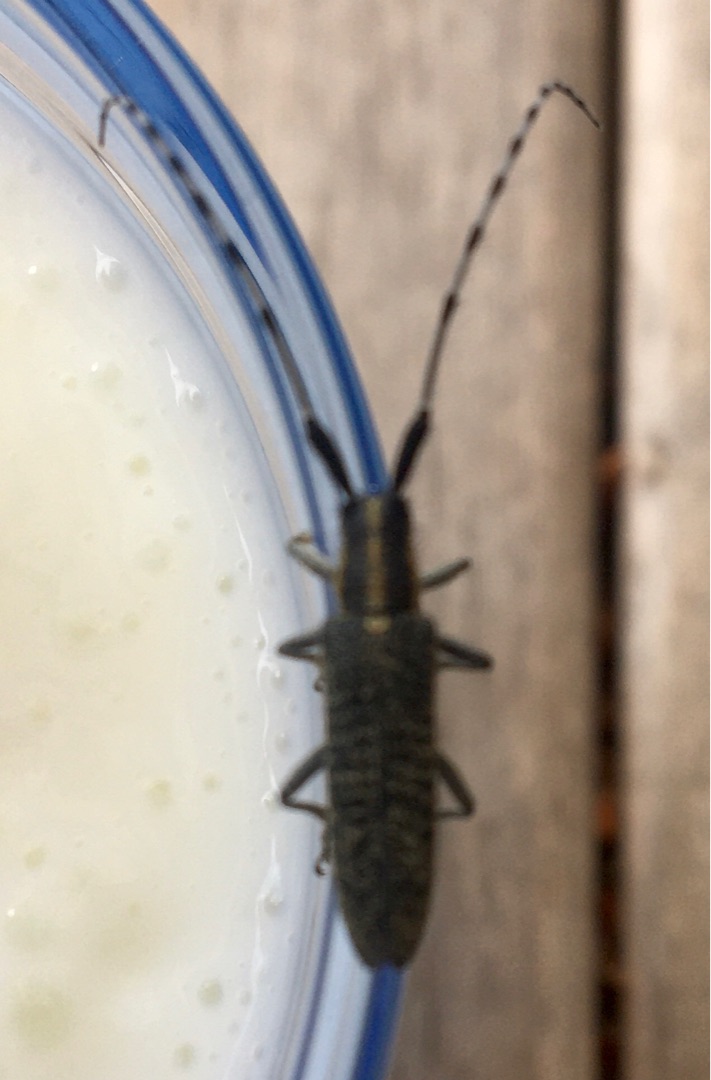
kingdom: Animalia
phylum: Arthropoda
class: Insecta
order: Coleoptera
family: Cerambycidae
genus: Agapanthia
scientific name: Agapanthia villosoviridescens
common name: Tidselbuk
